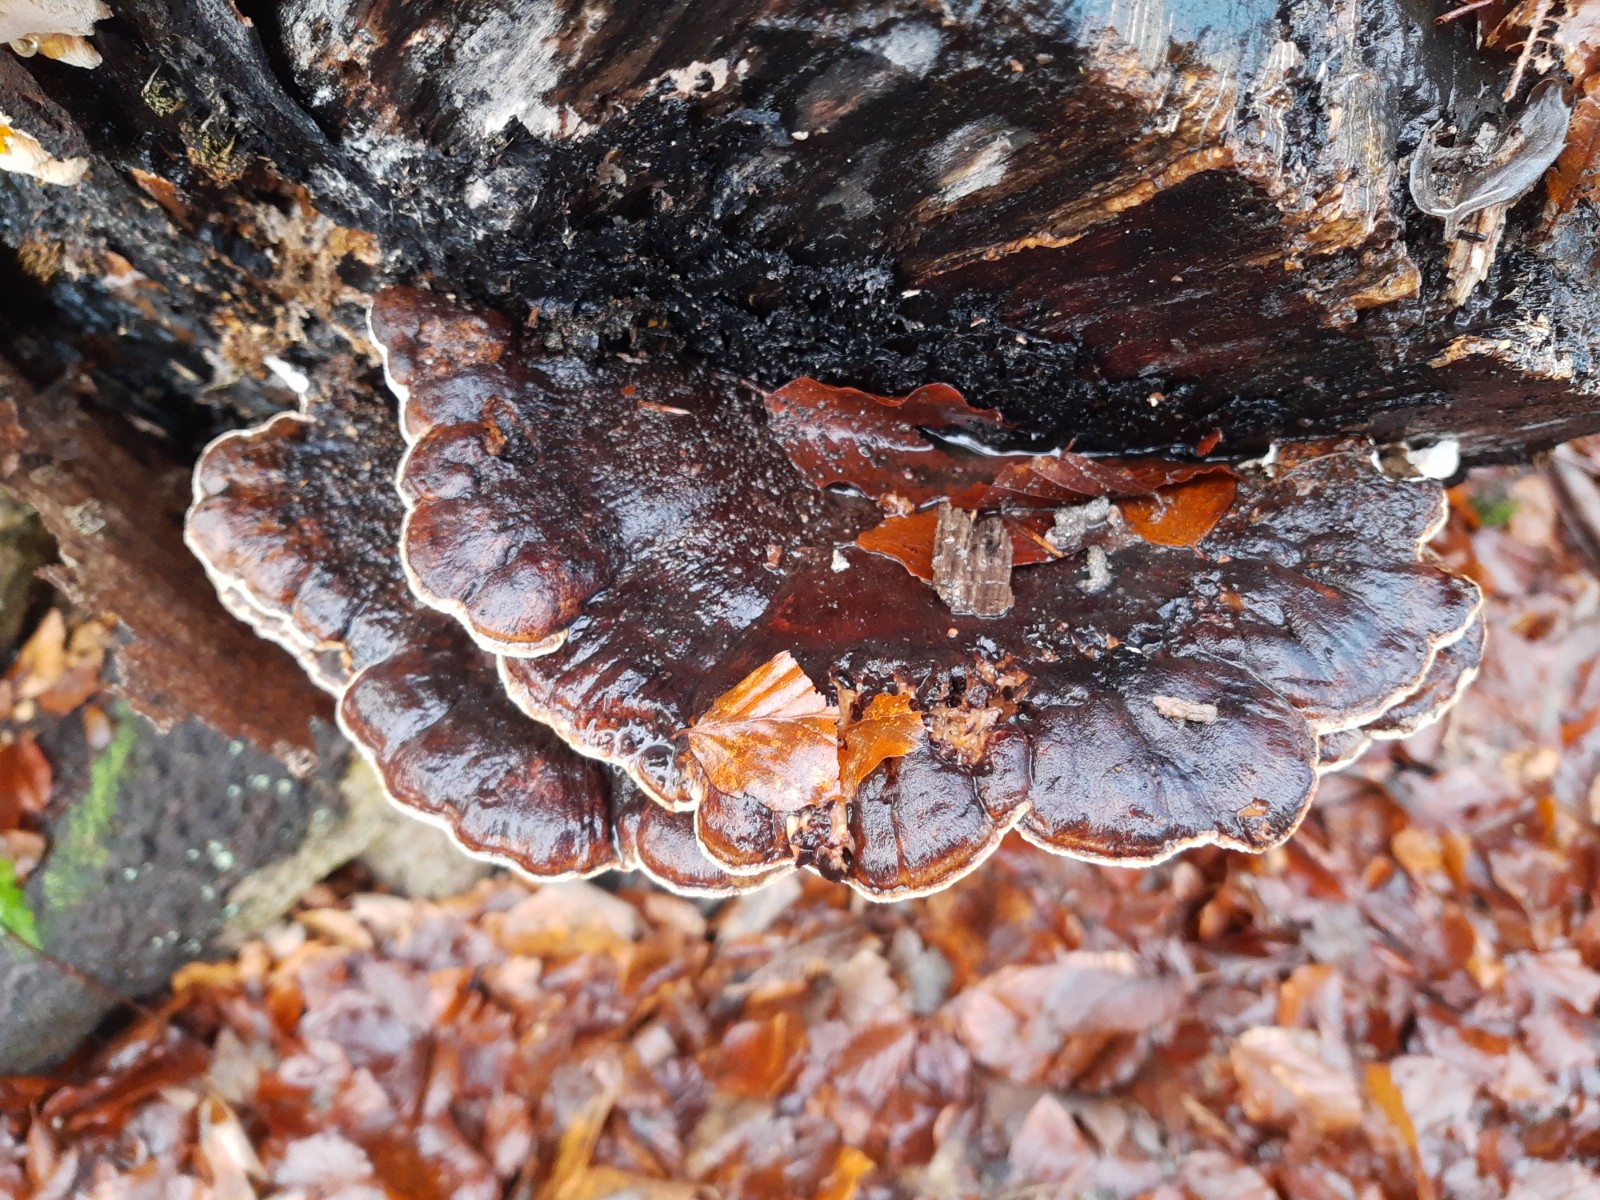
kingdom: Fungi
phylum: Basidiomycota
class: Agaricomycetes
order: Polyporales
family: Ischnodermataceae
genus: Ischnoderma
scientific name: Ischnoderma resinosum
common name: løv-tjæreporesvamp
